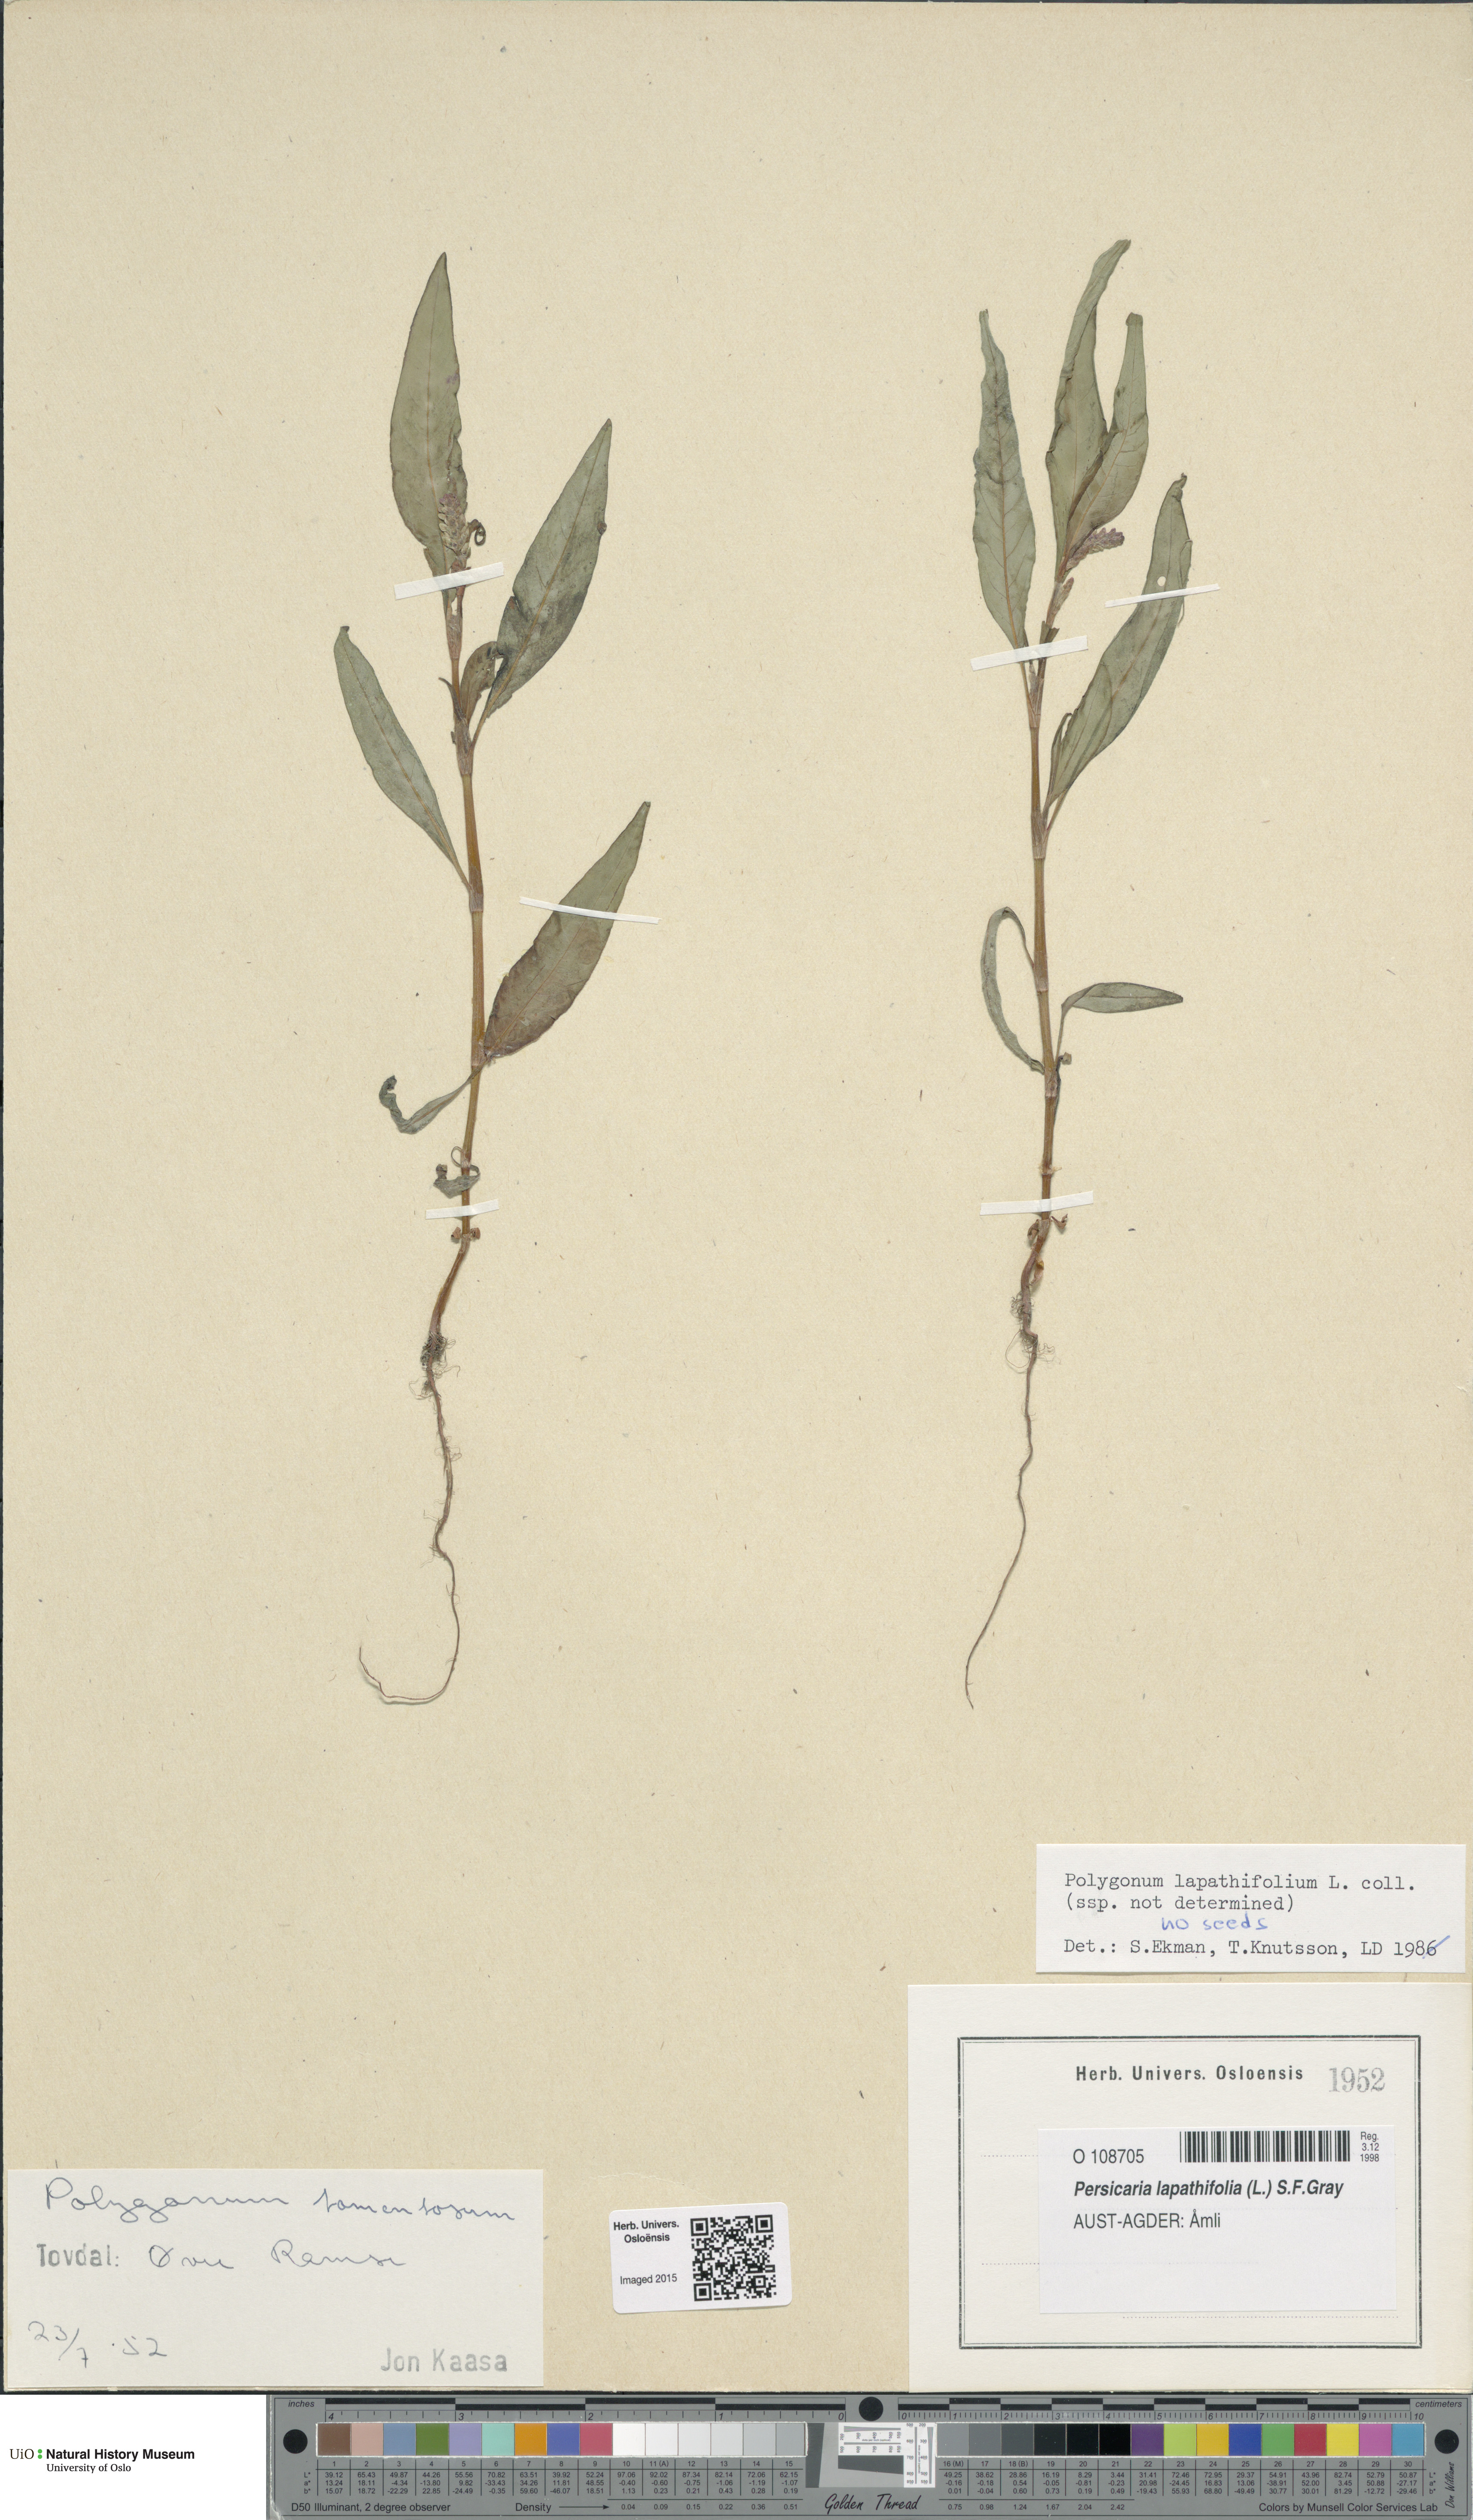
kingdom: Plantae
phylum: Tracheophyta
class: Magnoliopsida
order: Caryophyllales
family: Polygonaceae
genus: Persicaria
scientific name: Persicaria lapathifolia
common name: Curlytop knotweed
